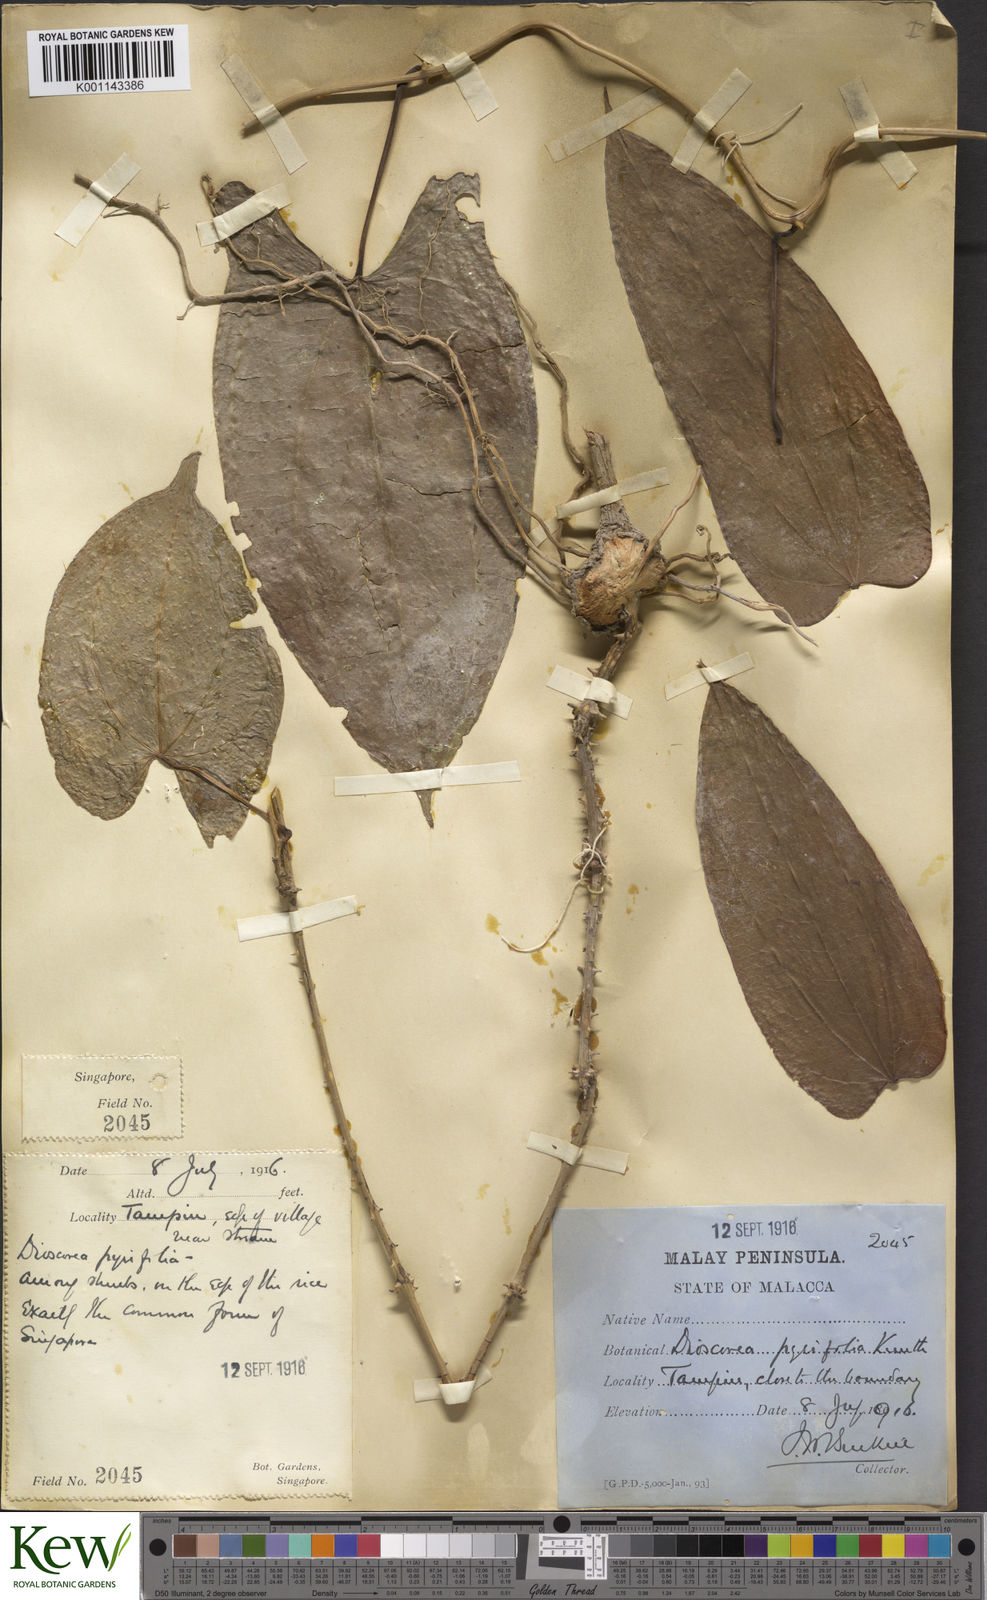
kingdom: Plantae
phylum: Tracheophyta
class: Liliopsida
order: Dioscoreales
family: Dioscoreaceae
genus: Dioscorea
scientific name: Dioscorea pyrifolia
